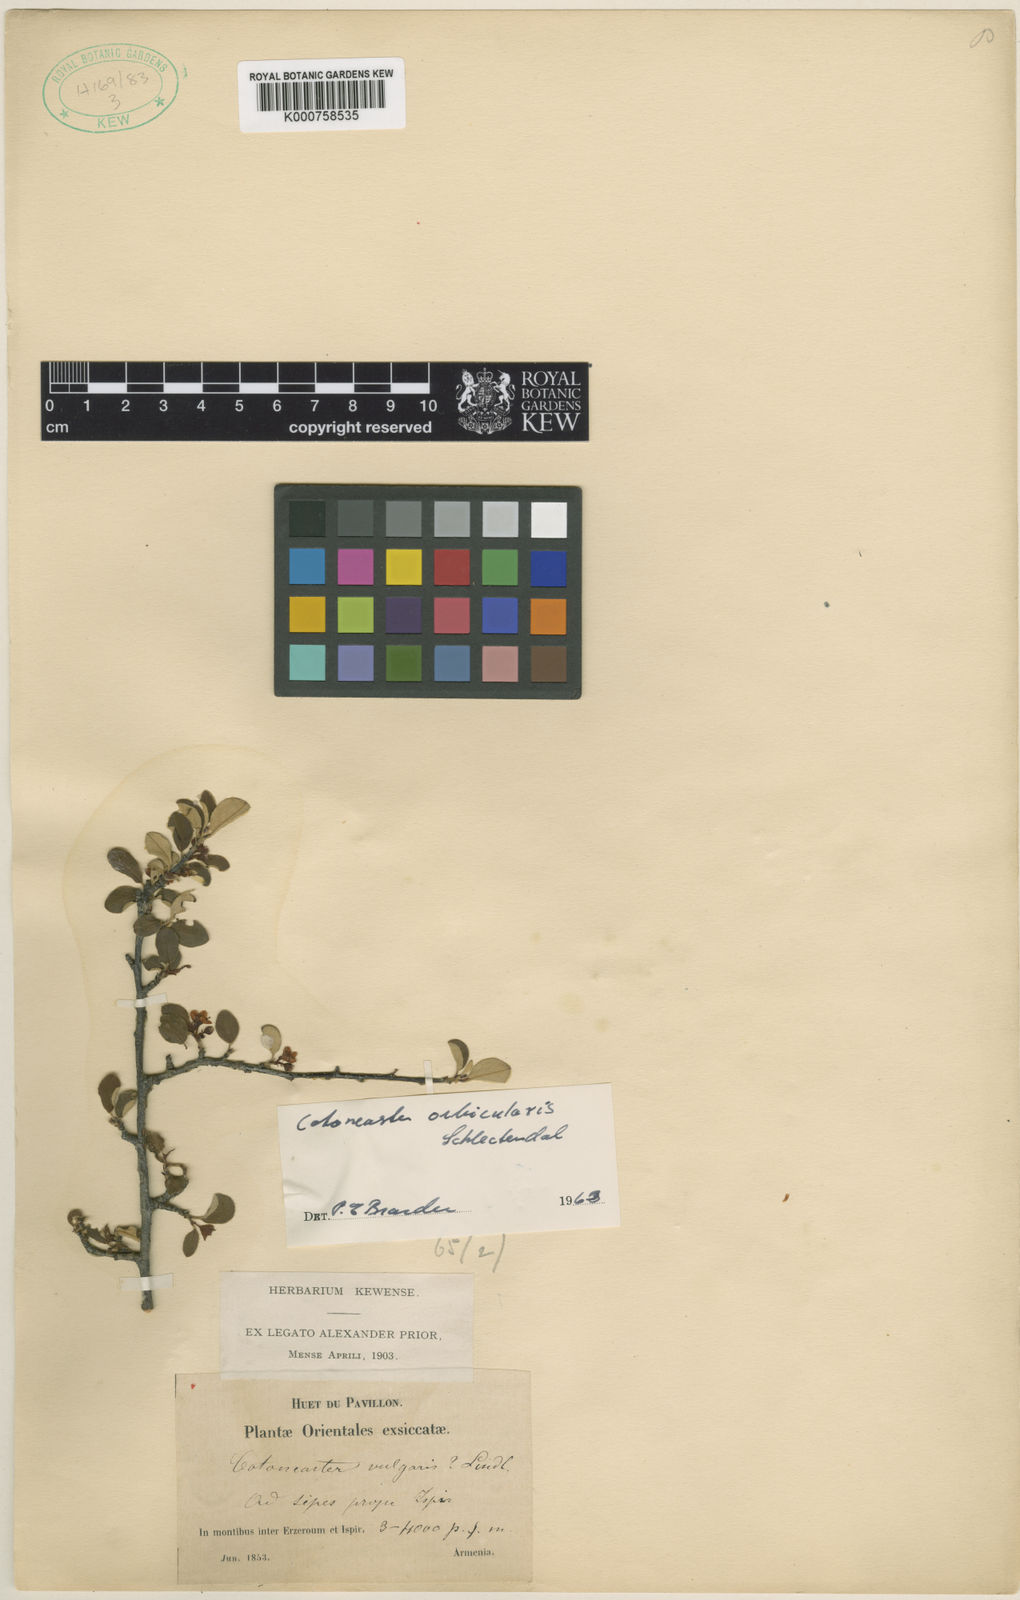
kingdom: Plantae
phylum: Tracheophyta
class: Magnoliopsida
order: Rosales
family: Rosaceae
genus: Cotoneaster
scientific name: Cotoneaster orbicularis
